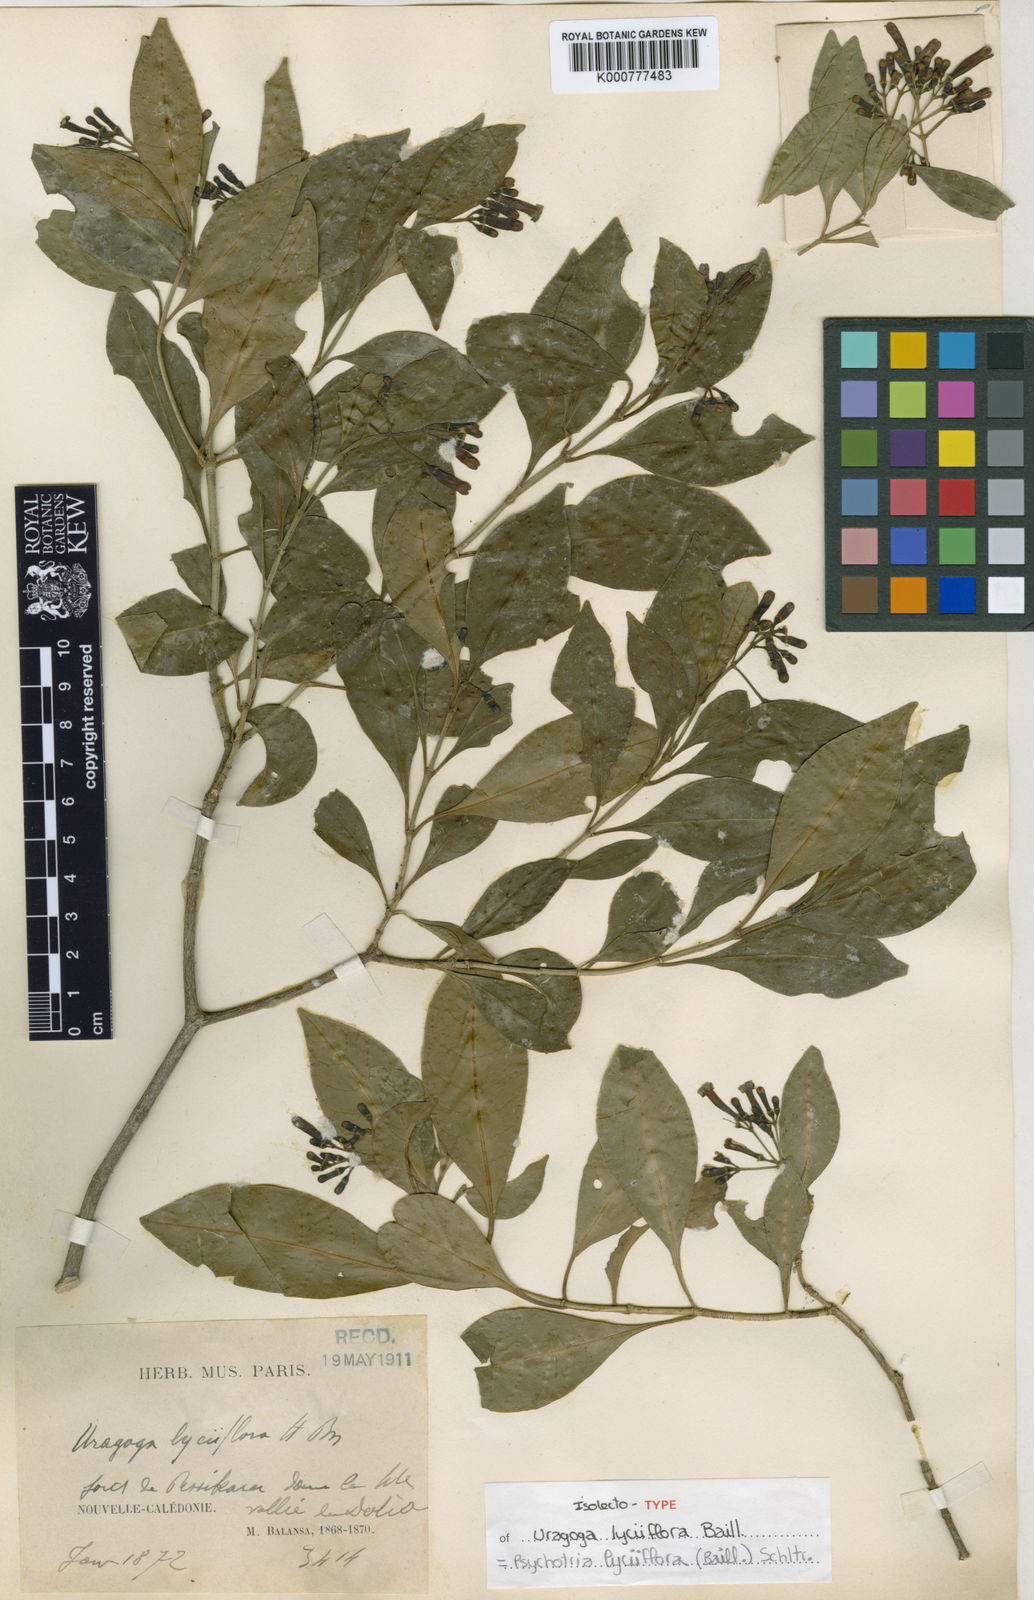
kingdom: Plantae
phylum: Tracheophyta
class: Magnoliopsida
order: Gentianales
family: Rubiaceae
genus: Eumachia
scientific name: Eumachia lyciiflora
